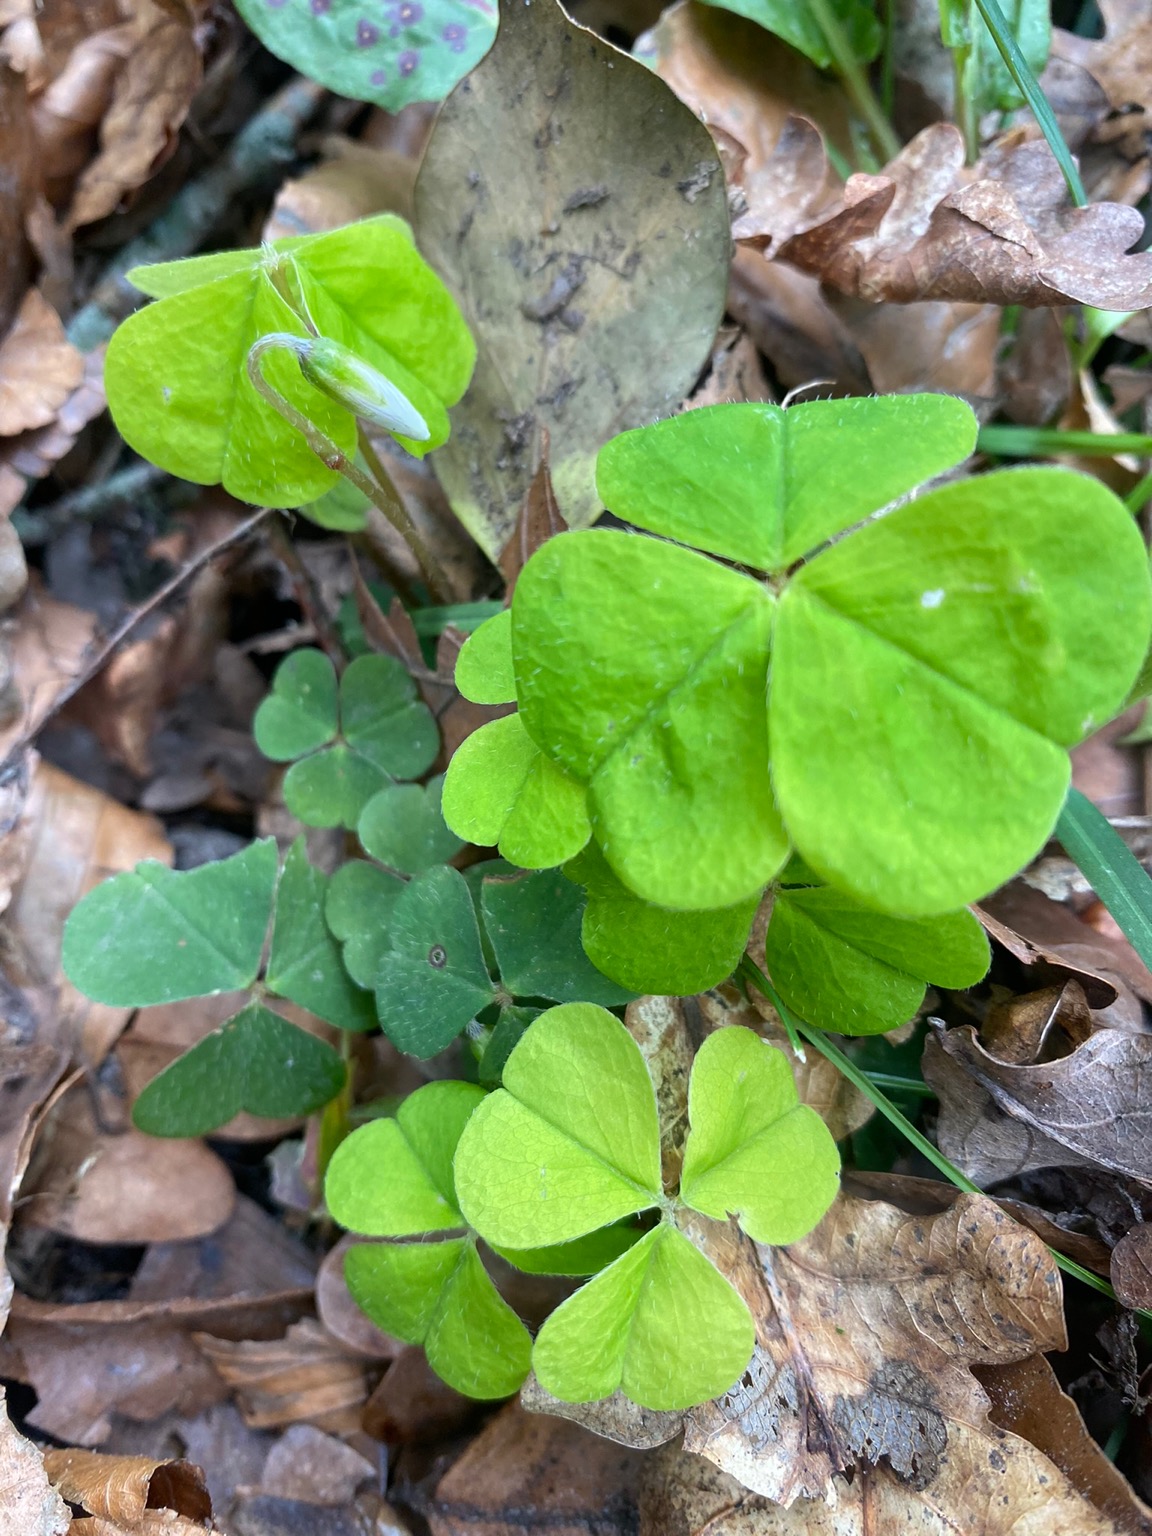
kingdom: Plantae
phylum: Tracheophyta
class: Magnoliopsida
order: Oxalidales
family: Oxalidaceae
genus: Oxalis
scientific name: Oxalis acetosella
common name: Skovsyre
